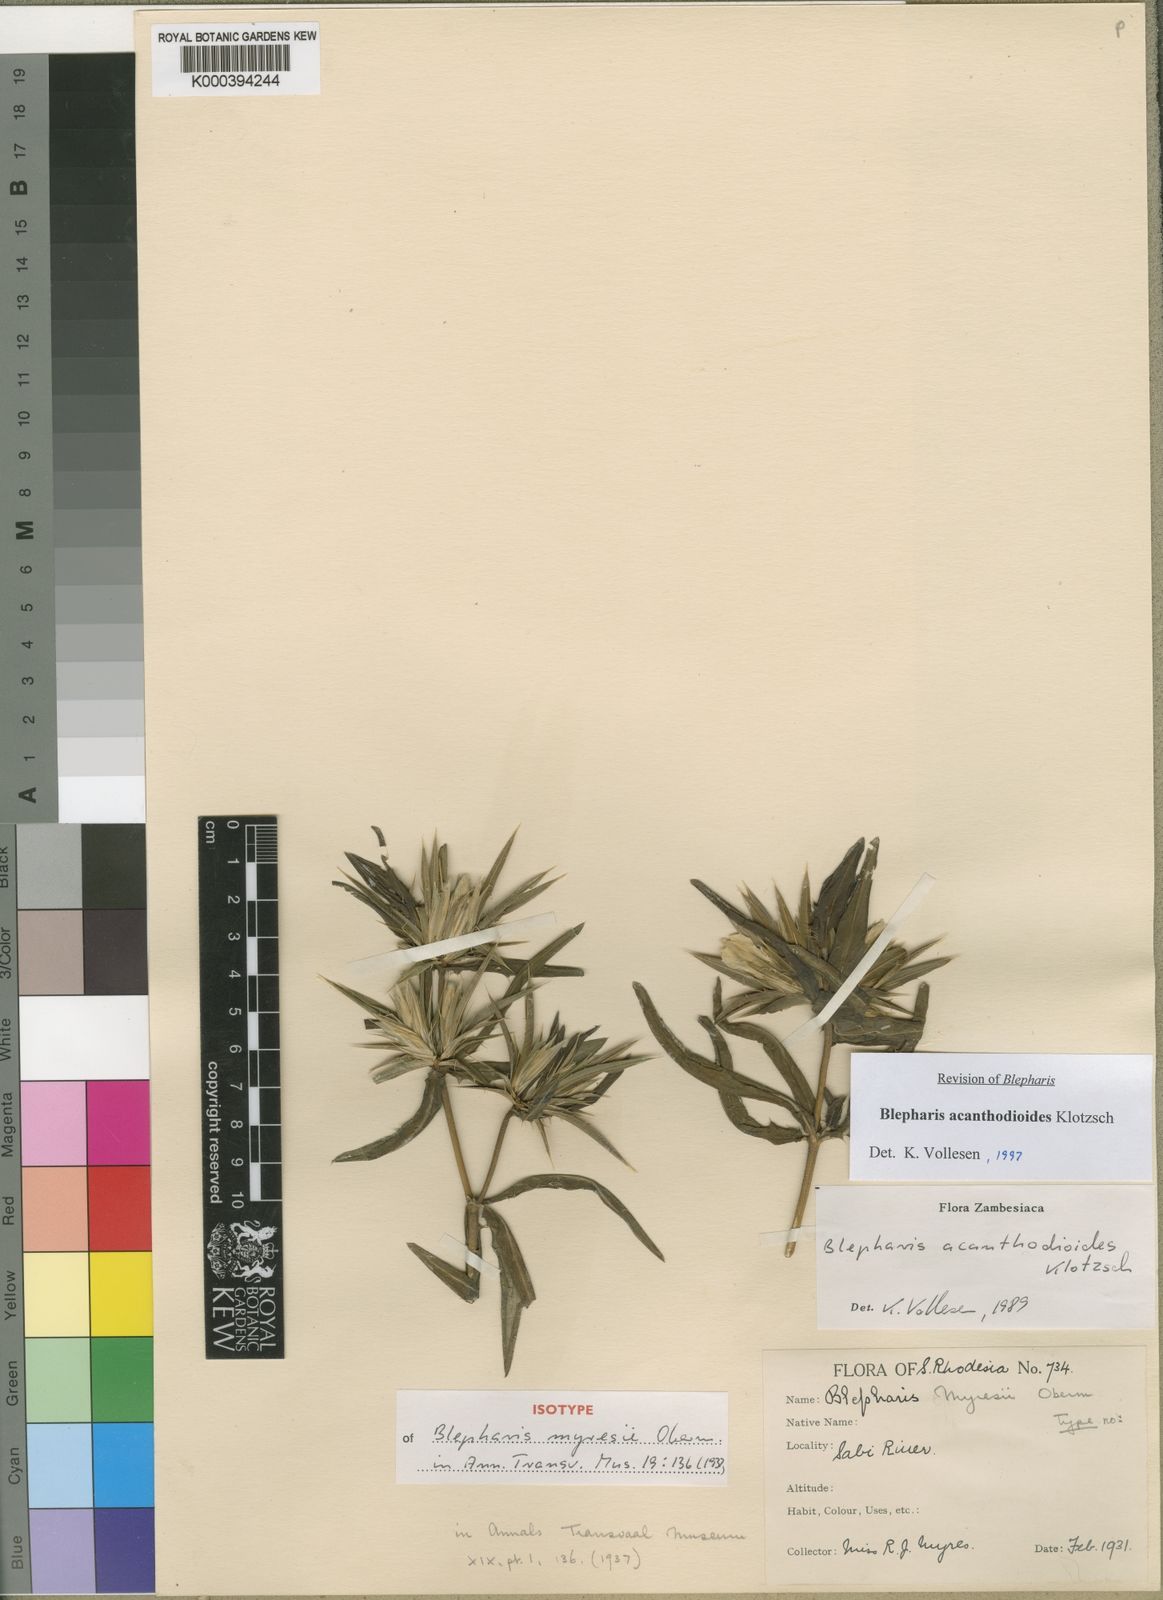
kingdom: Plantae
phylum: Tracheophyta
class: Magnoliopsida
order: Lamiales
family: Acanthaceae
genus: Blepharis
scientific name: Blepharis acanthodioides
